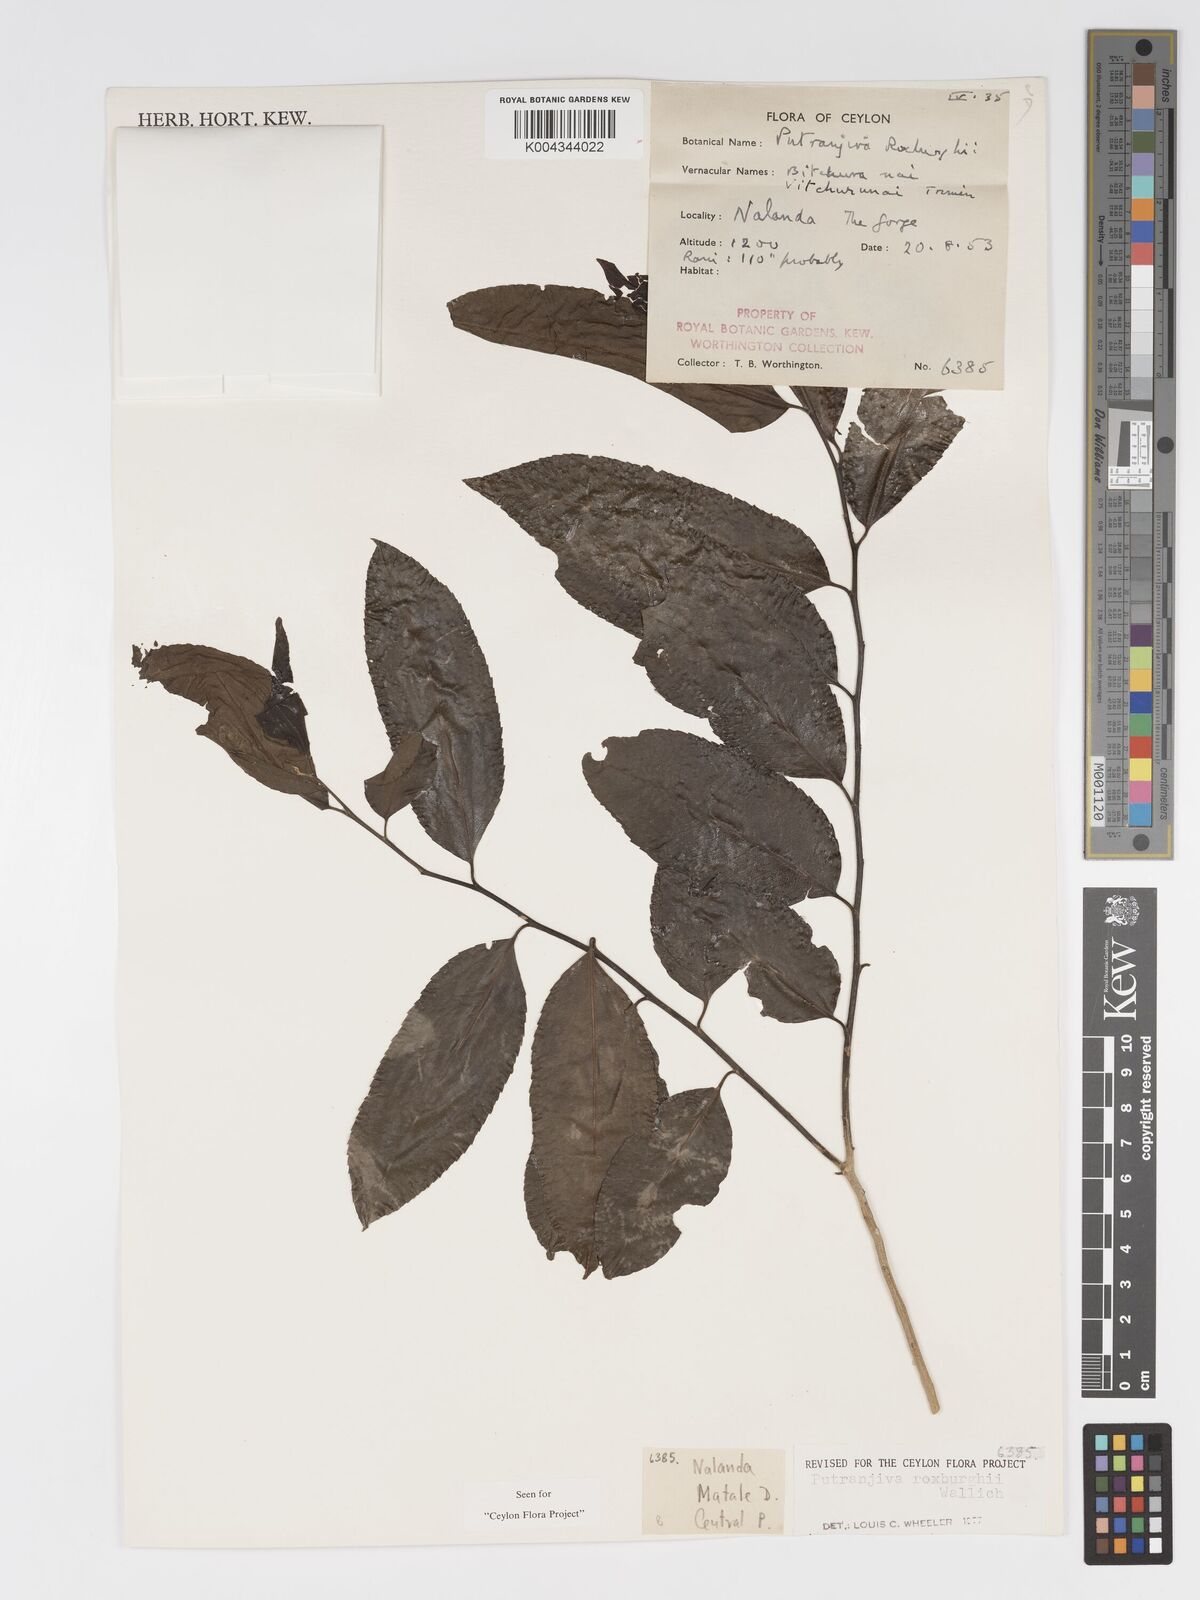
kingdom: Plantae
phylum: Tracheophyta
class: Magnoliopsida
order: Malpighiales
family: Putranjivaceae
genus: Putranjiva
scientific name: Putranjiva roxburghii
